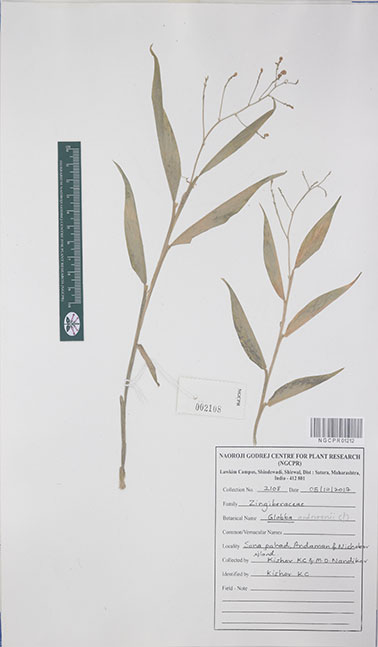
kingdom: Plantae
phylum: Tracheophyta
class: Liliopsida
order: Zingiberales
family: Zingiberaceae
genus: Globba
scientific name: Globba andersonii
